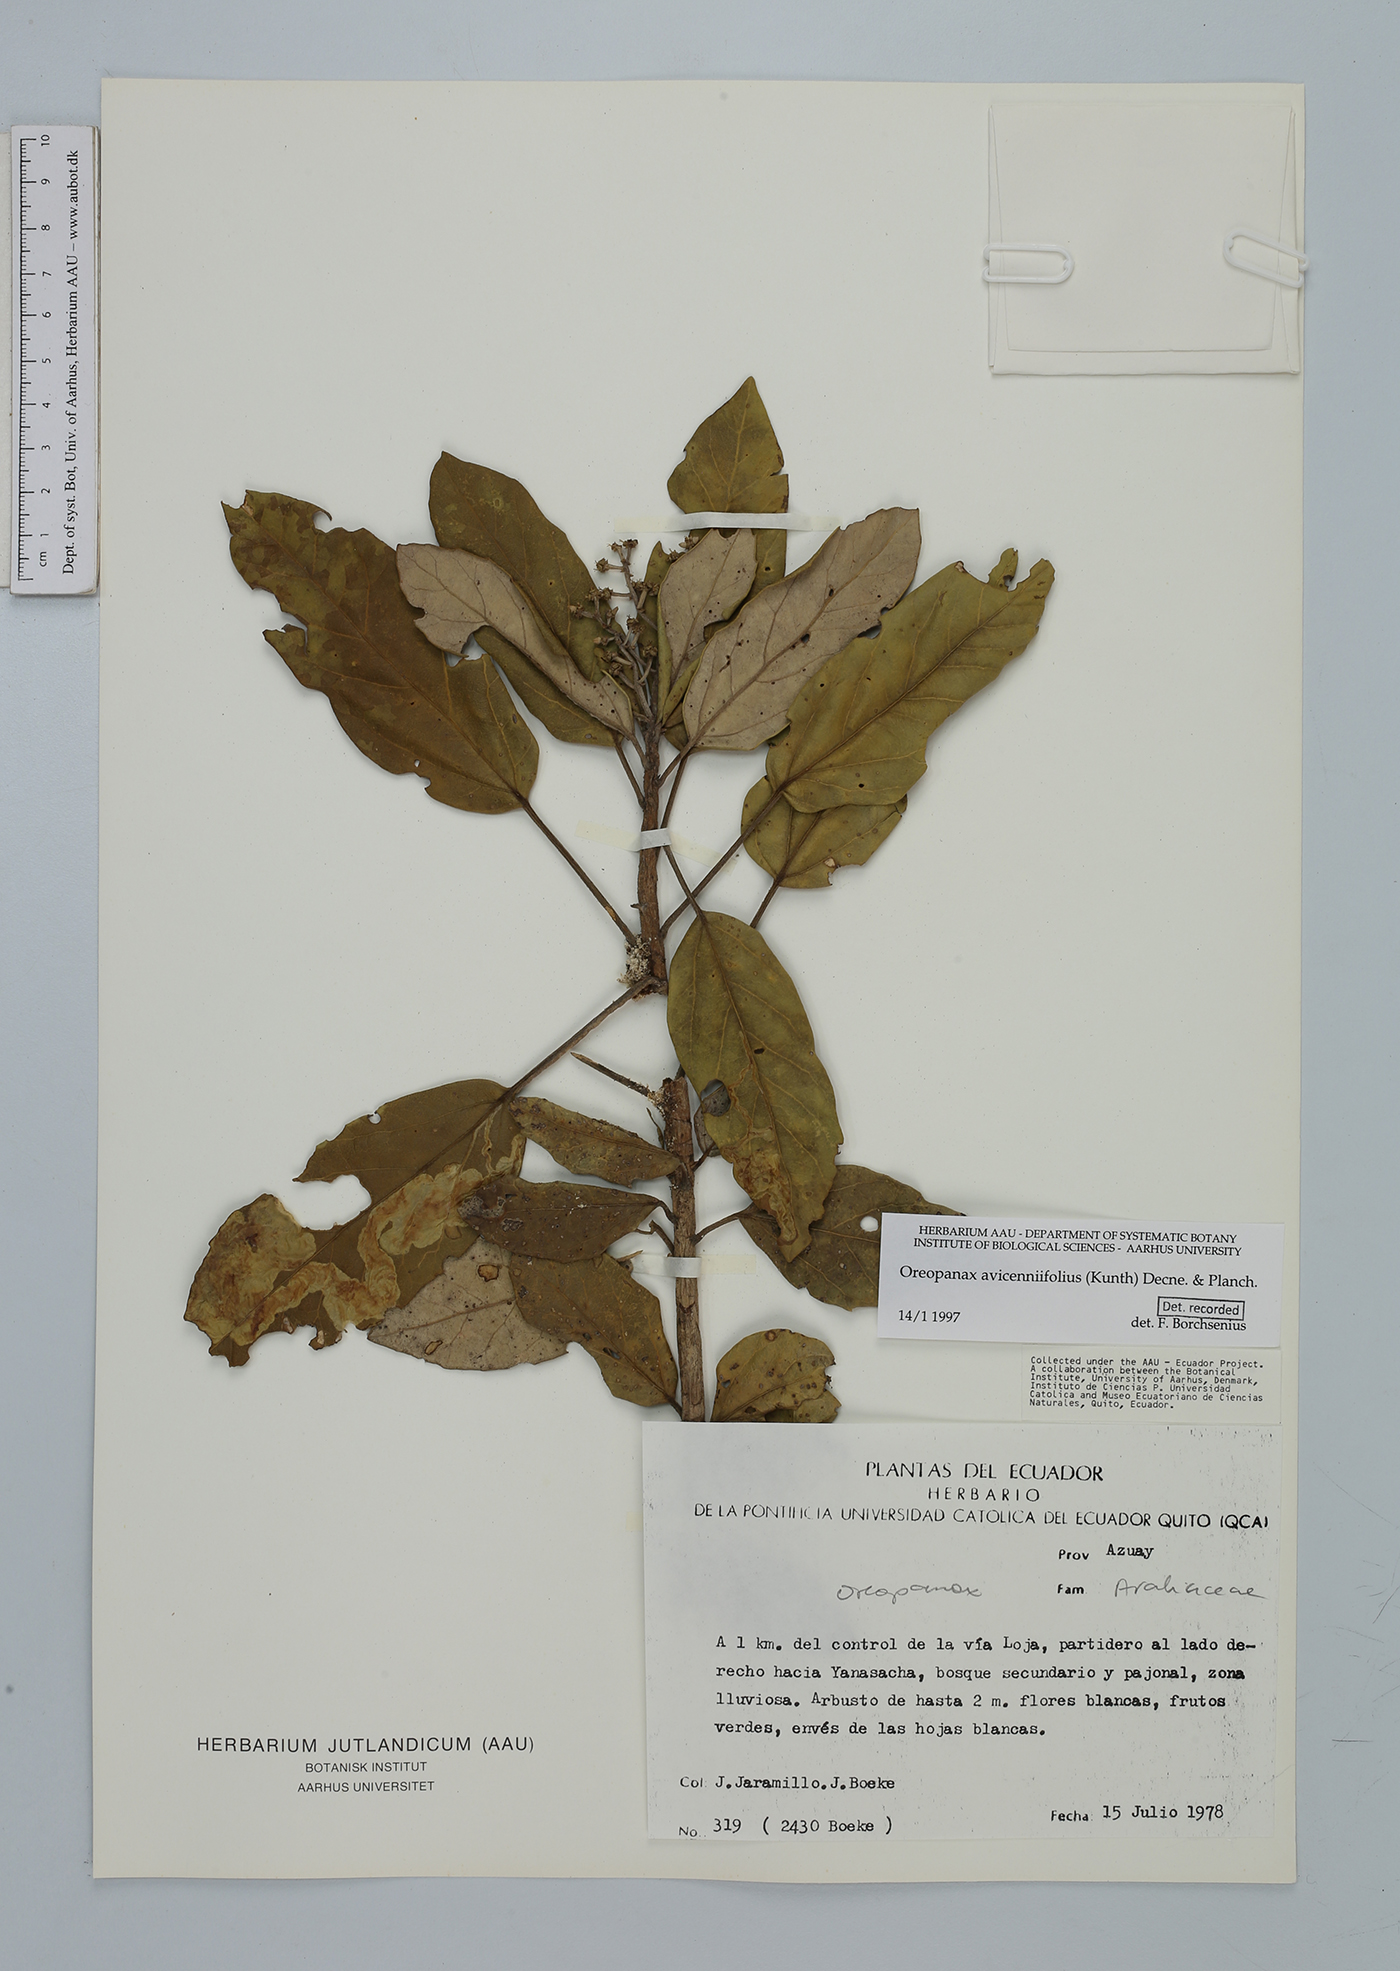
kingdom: Plantae
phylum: Tracheophyta
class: Magnoliopsida
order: Apiales
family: Araliaceae
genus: Oreopanax
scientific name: Oreopanax avicenniifolius
